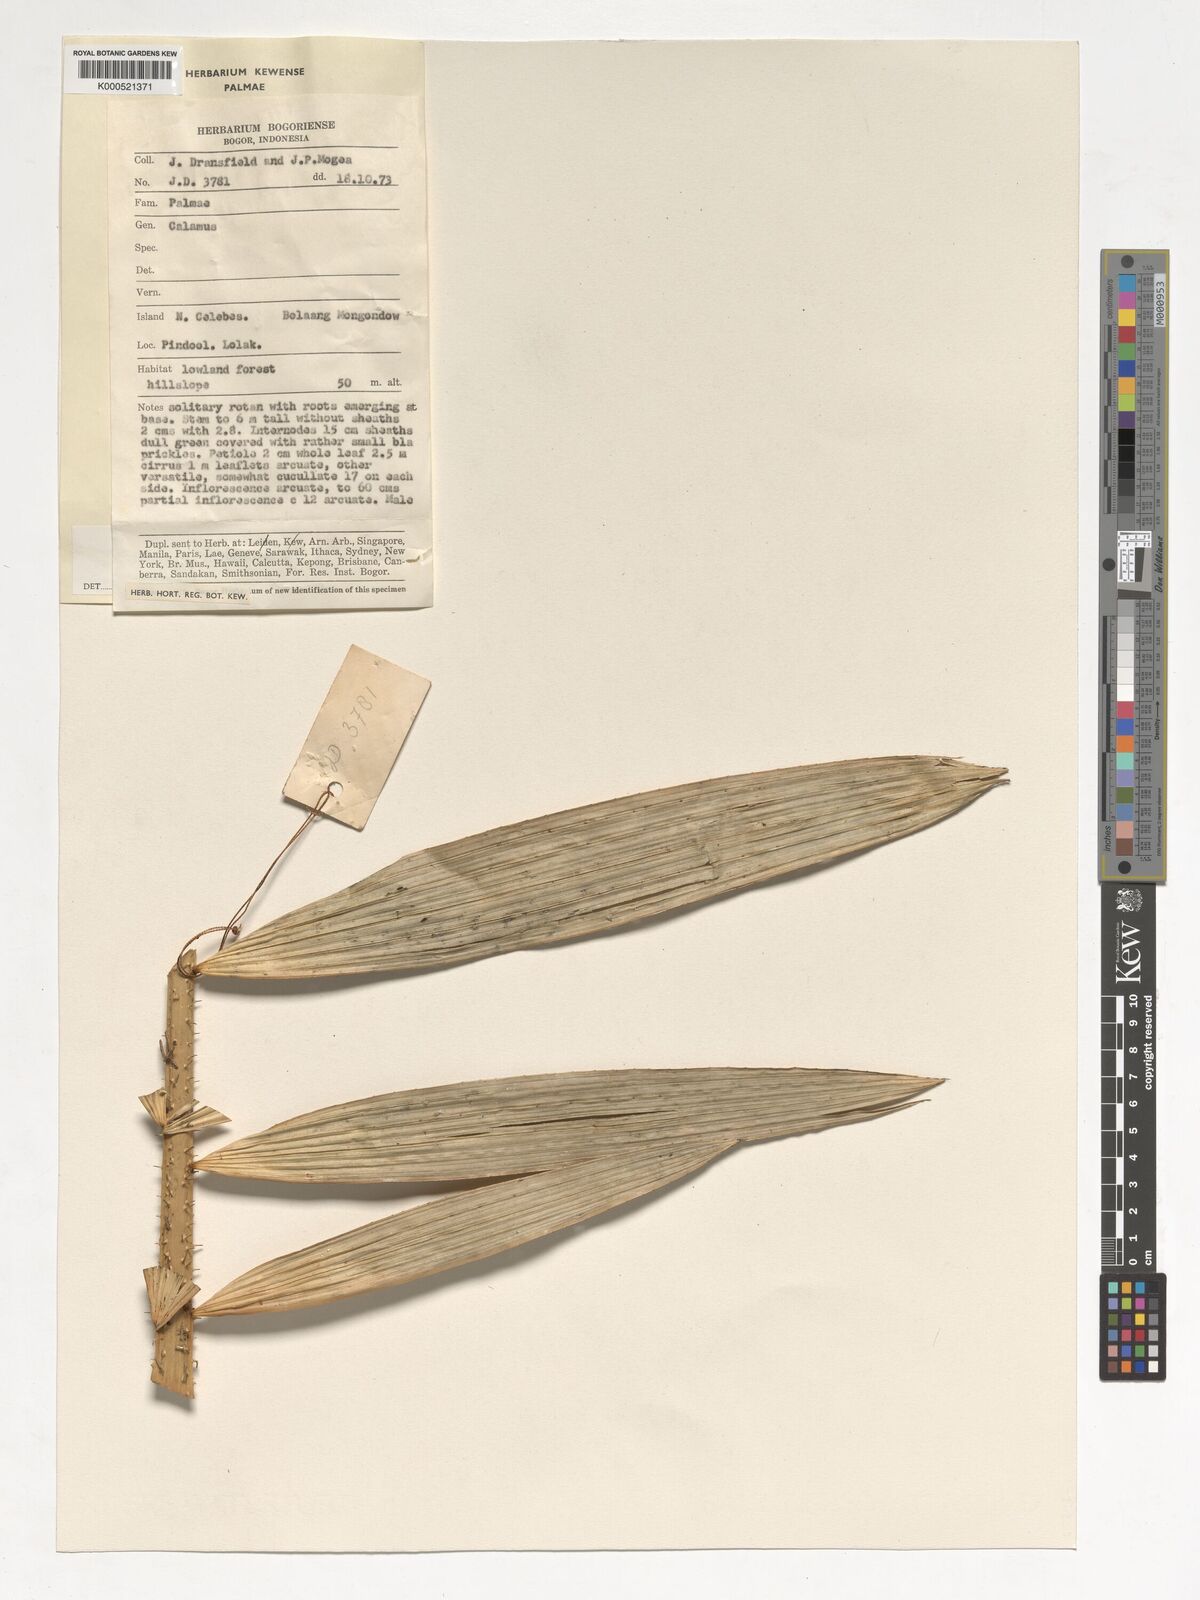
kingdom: Plantae
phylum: Tracheophyta
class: Liliopsida
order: Arecales
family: Arecaceae
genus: Calamus
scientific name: Calamus moseleyanus
